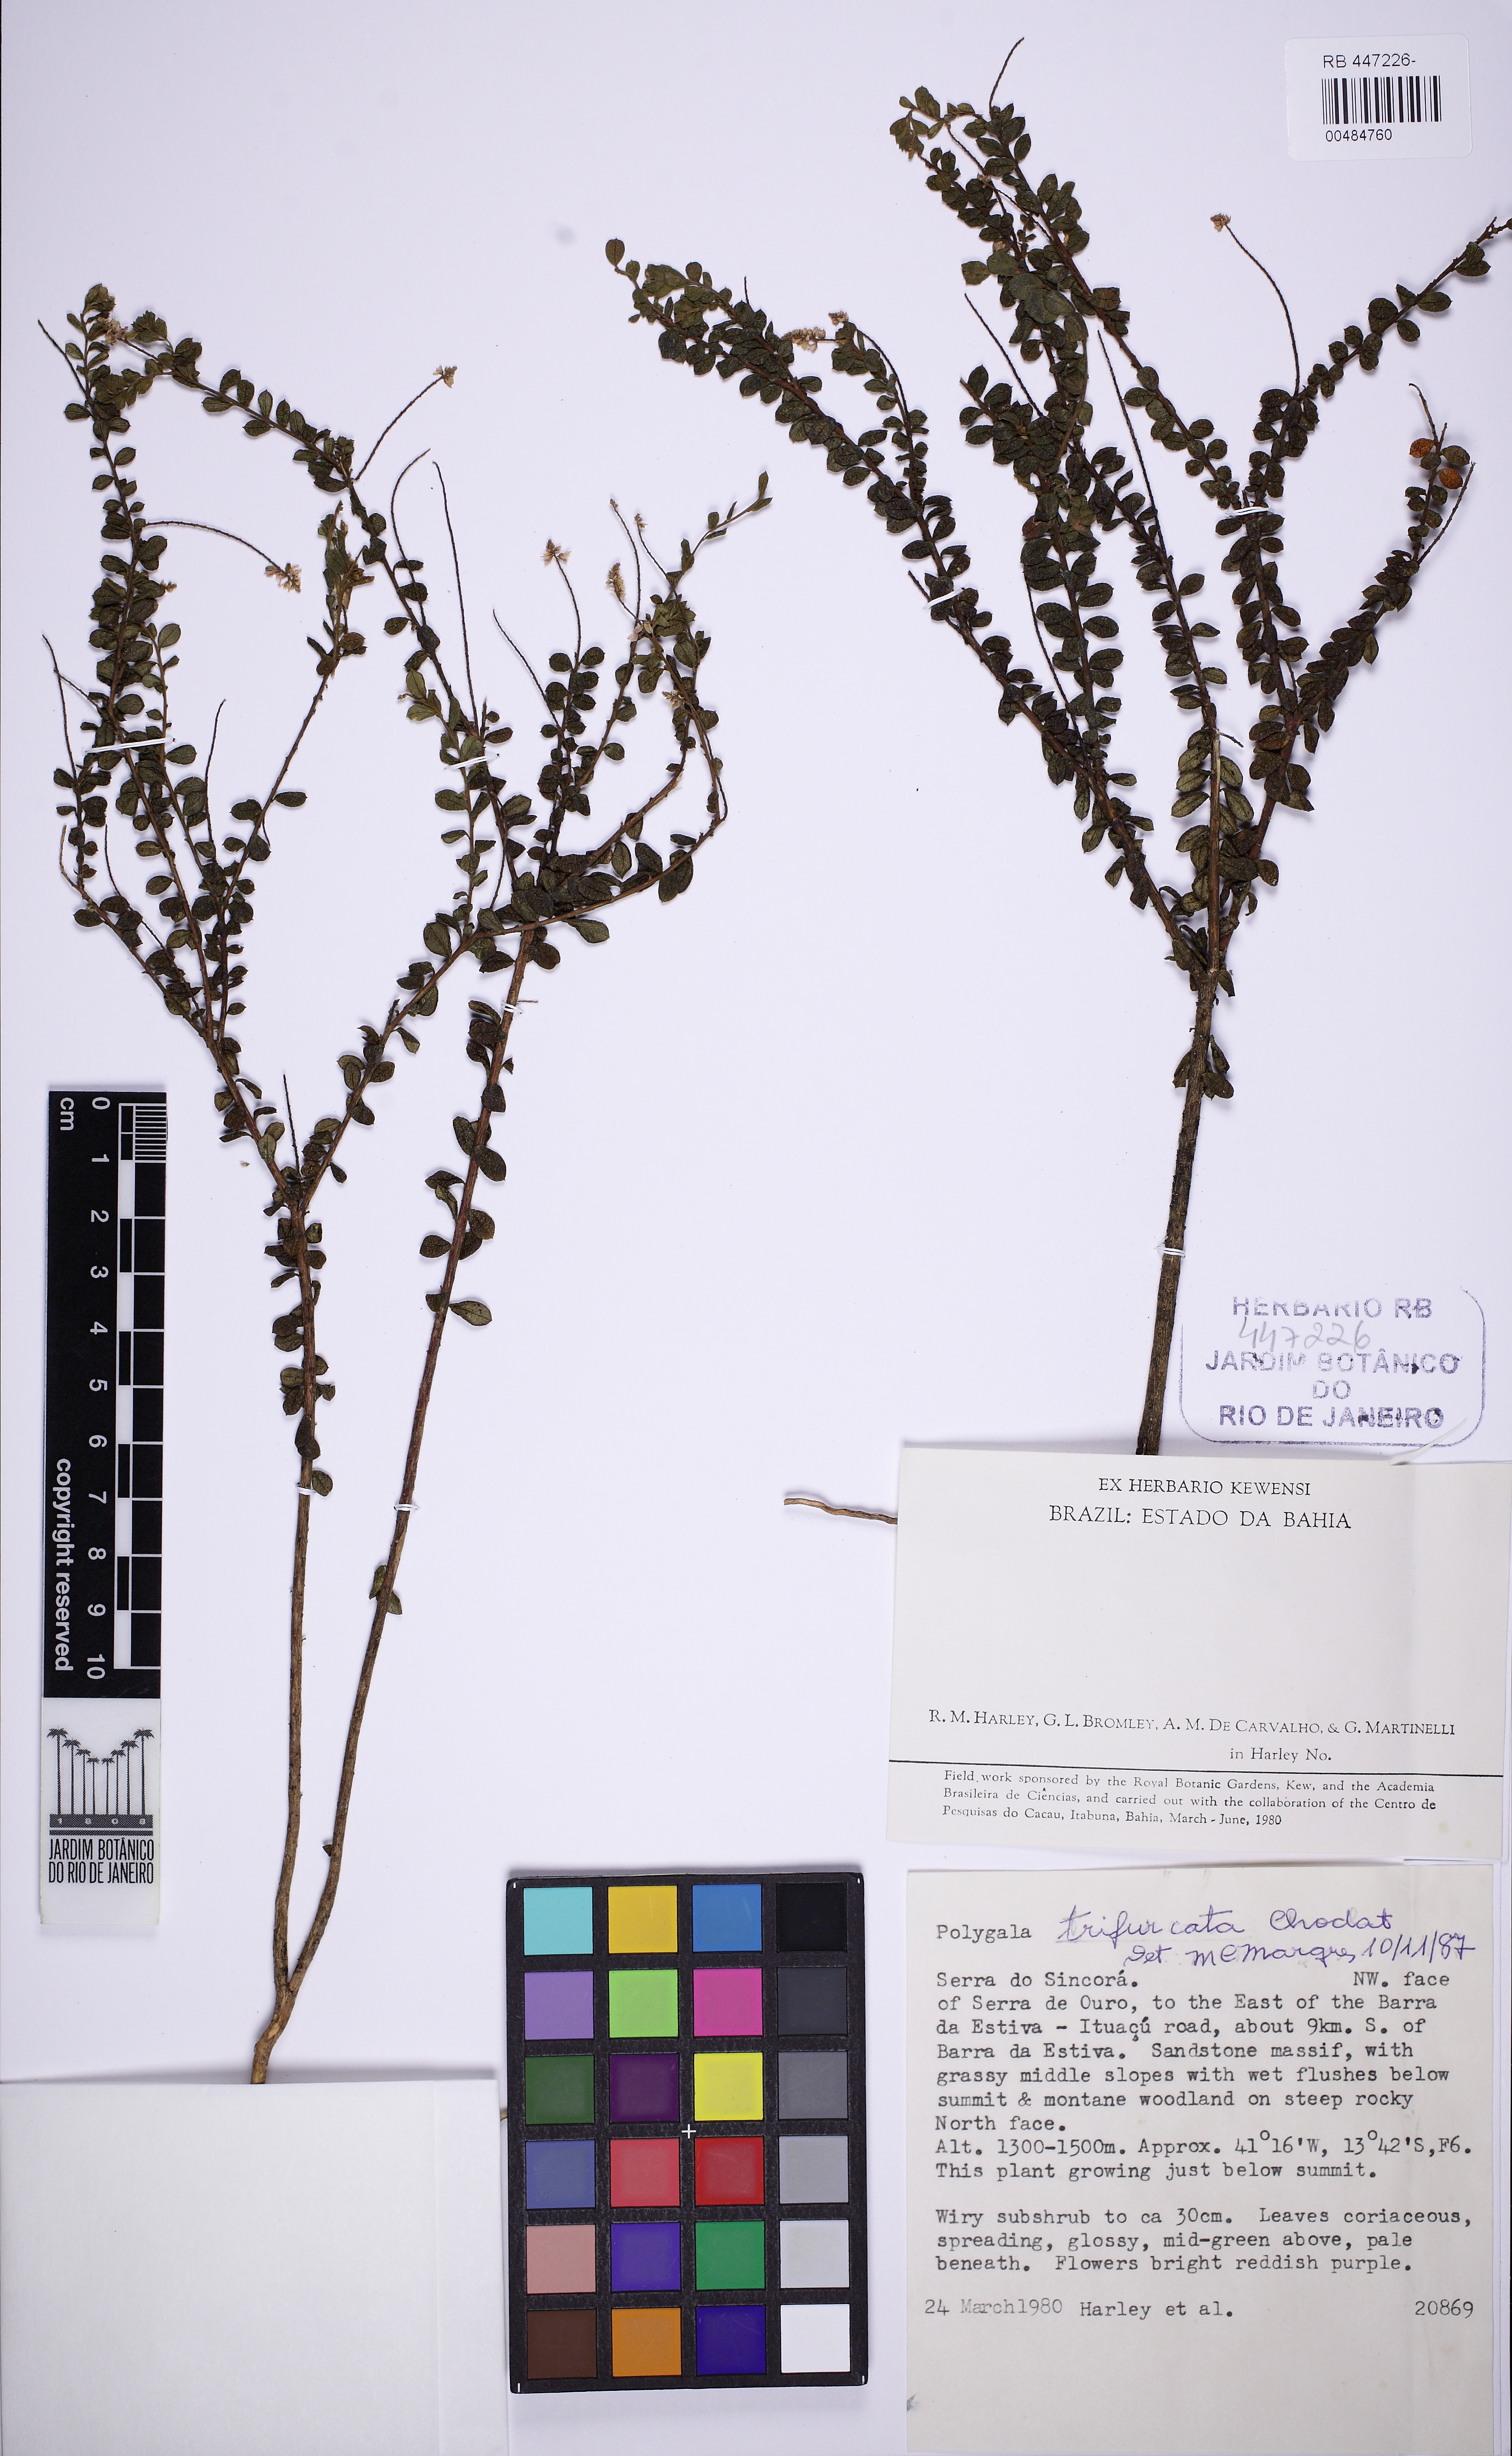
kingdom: Plantae
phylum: Tracheophyta
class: Magnoliopsida
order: Fabales
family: Polygalaceae
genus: Polygala
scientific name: Polygala trifurcata
